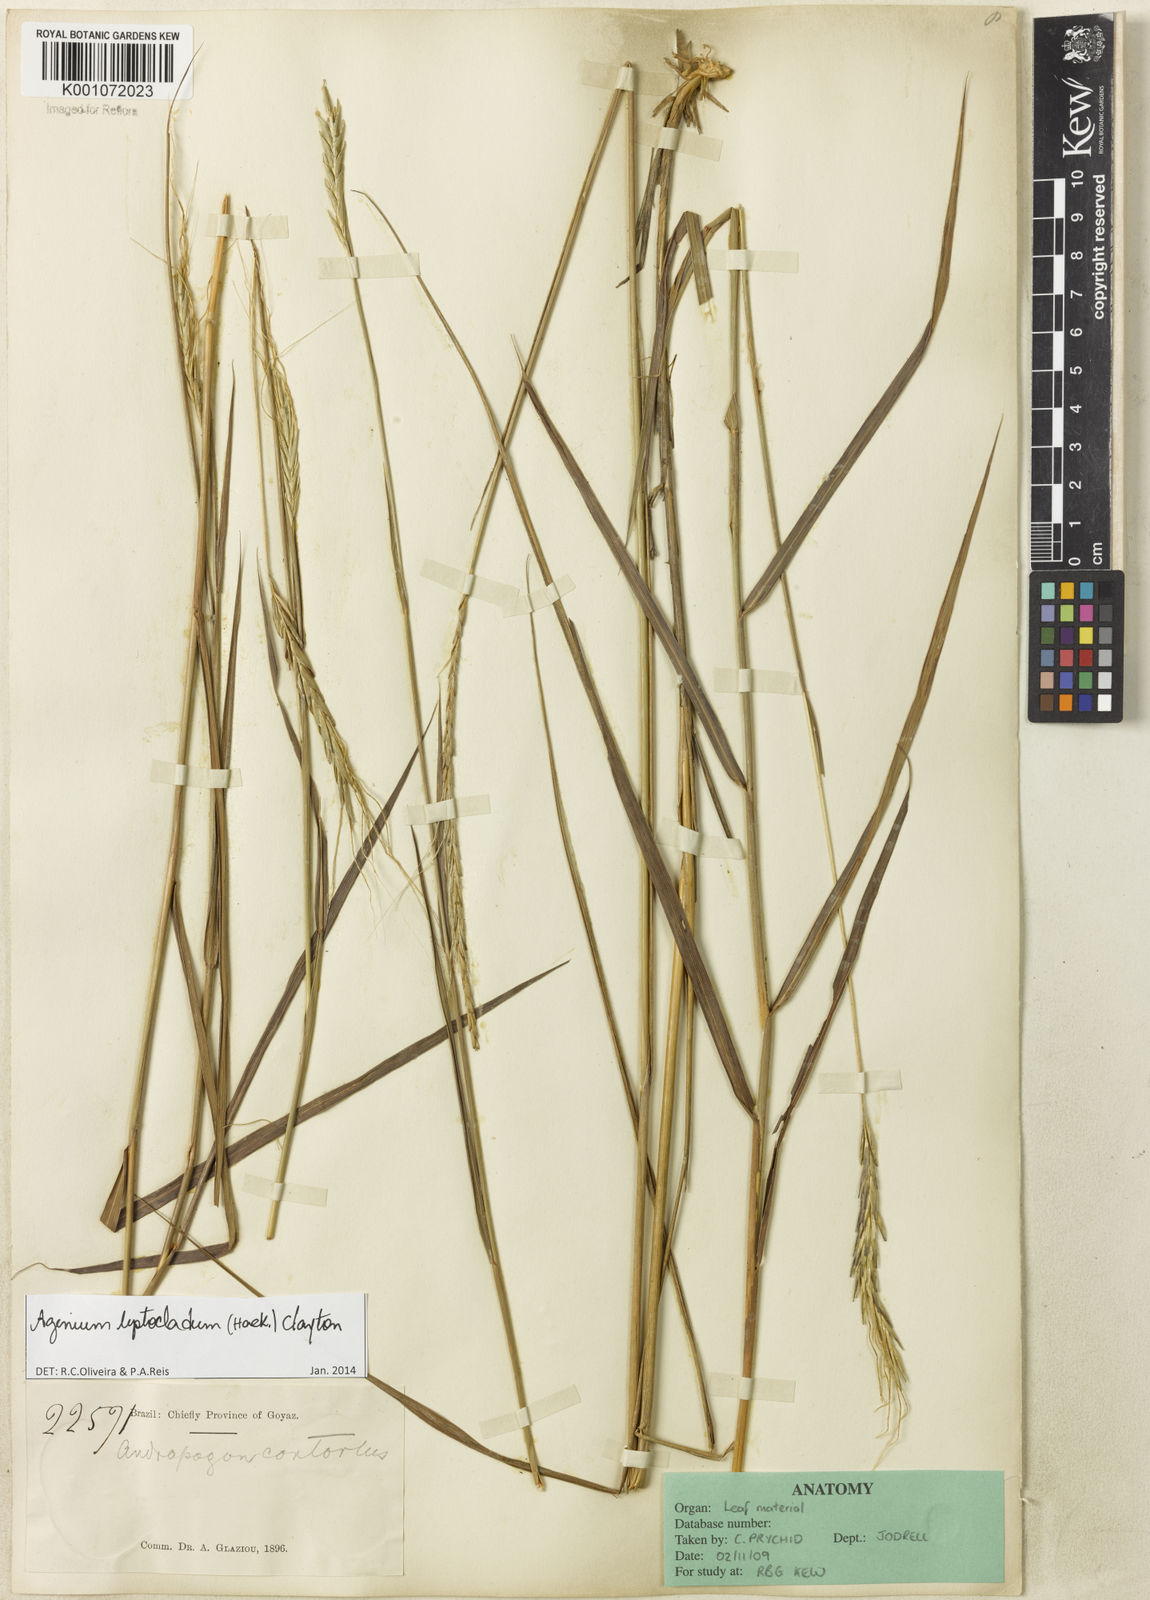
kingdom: Plantae
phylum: Tracheophyta
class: Liliopsida
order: Poales
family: Poaceae
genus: Agenium
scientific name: Agenium leptocladum
